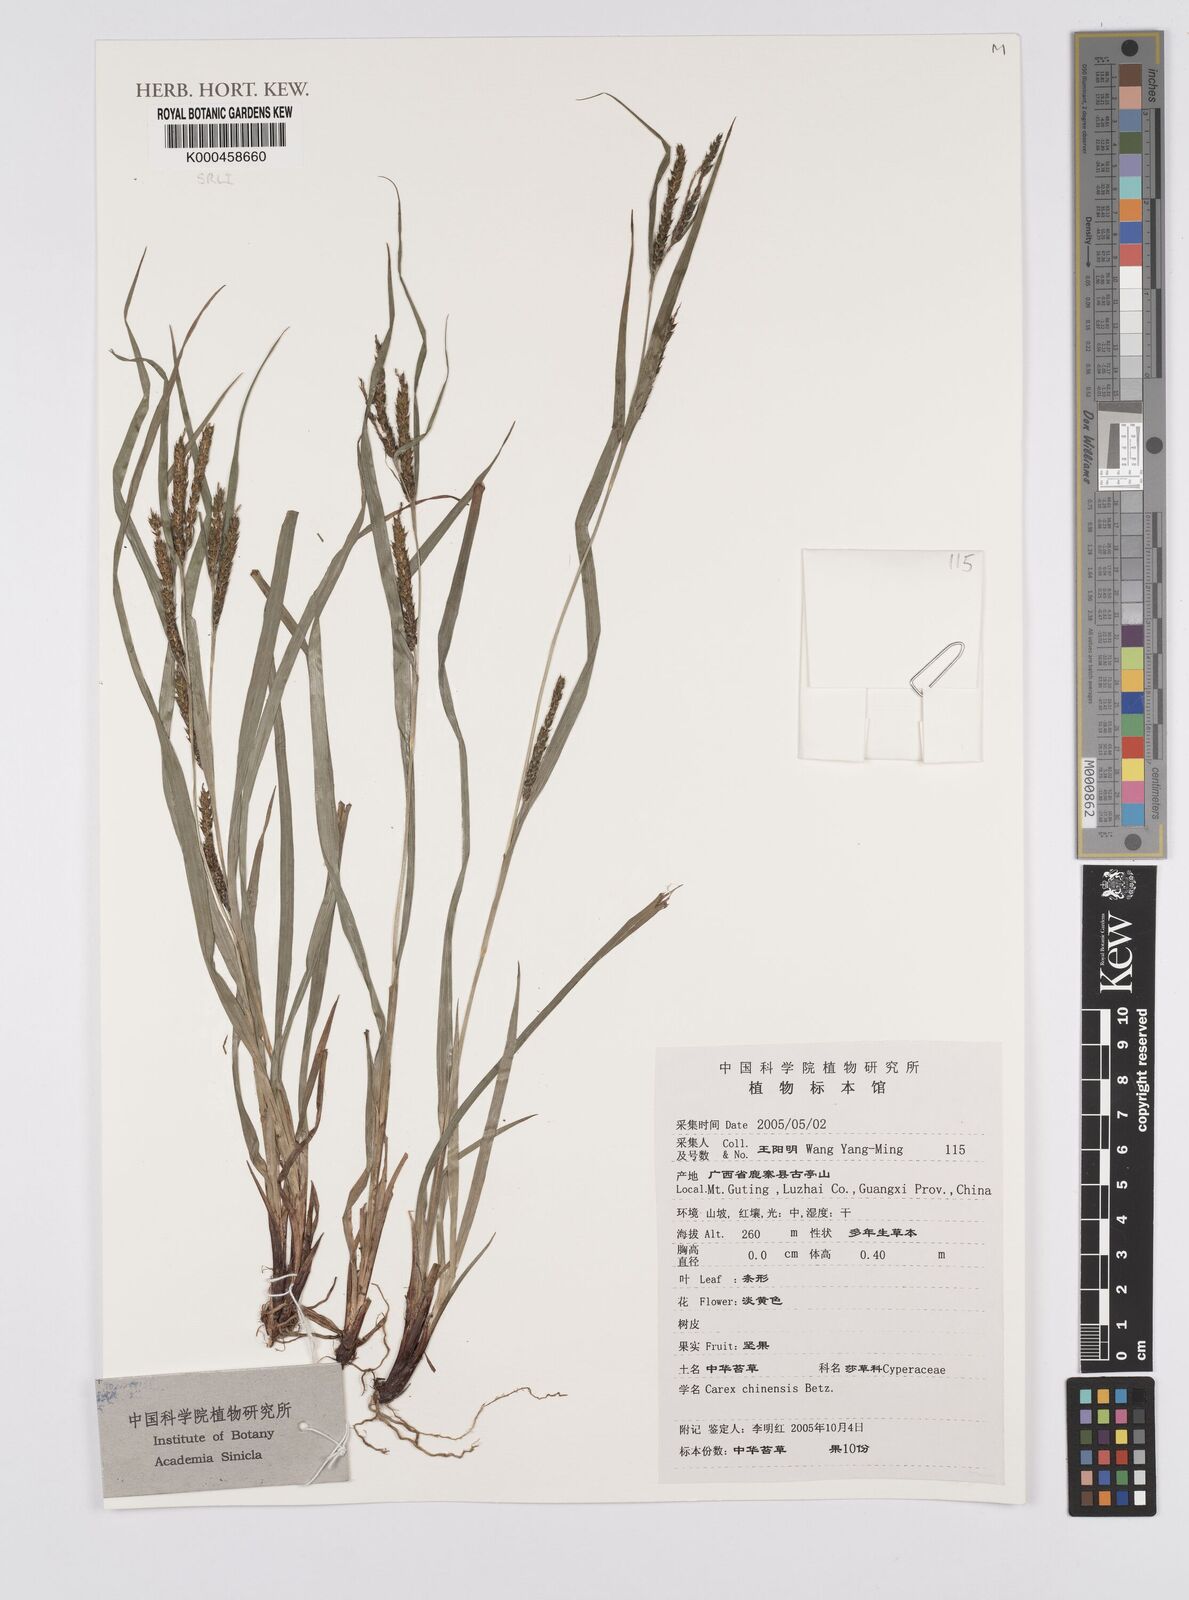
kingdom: Plantae
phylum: Tracheophyta
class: Liliopsida
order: Poales
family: Cyperaceae
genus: Carex
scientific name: Carex chinensis
